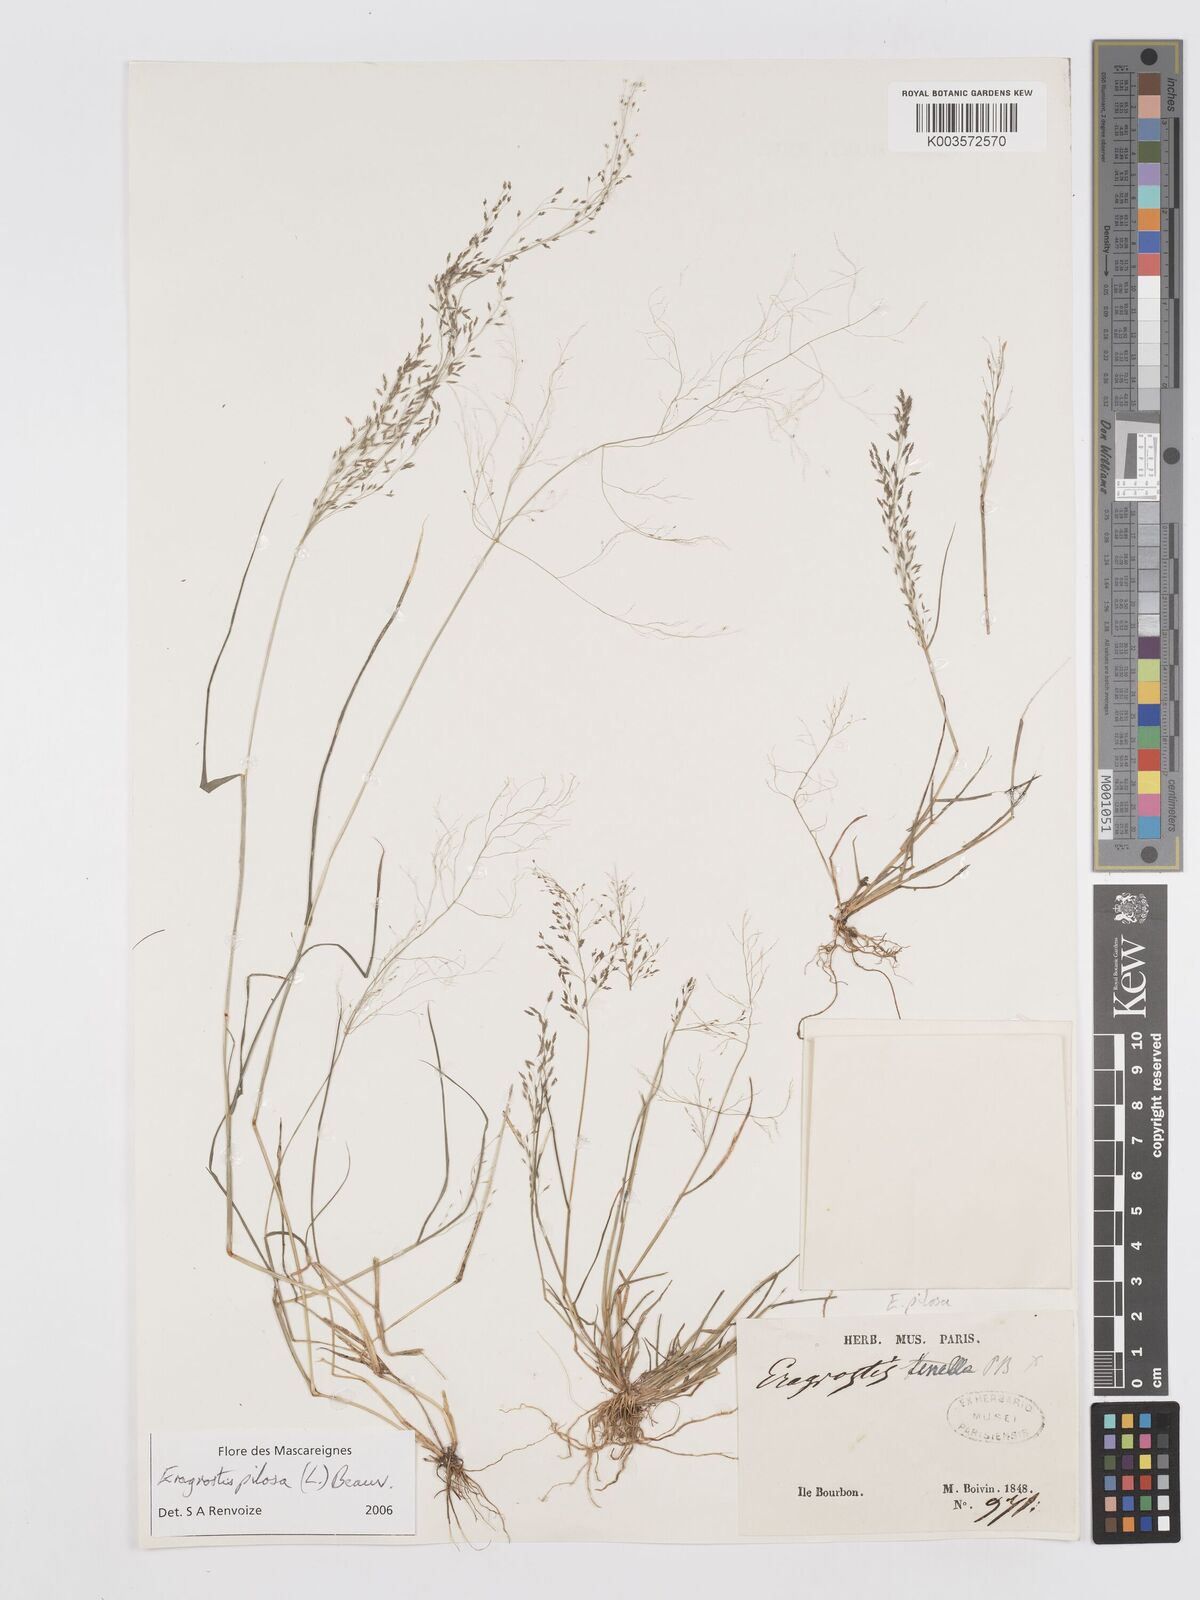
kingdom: Plantae
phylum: Tracheophyta
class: Liliopsida
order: Poales
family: Poaceae
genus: Eragrostis
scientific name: Eragrostis pilosa
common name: Indian lovegrass
